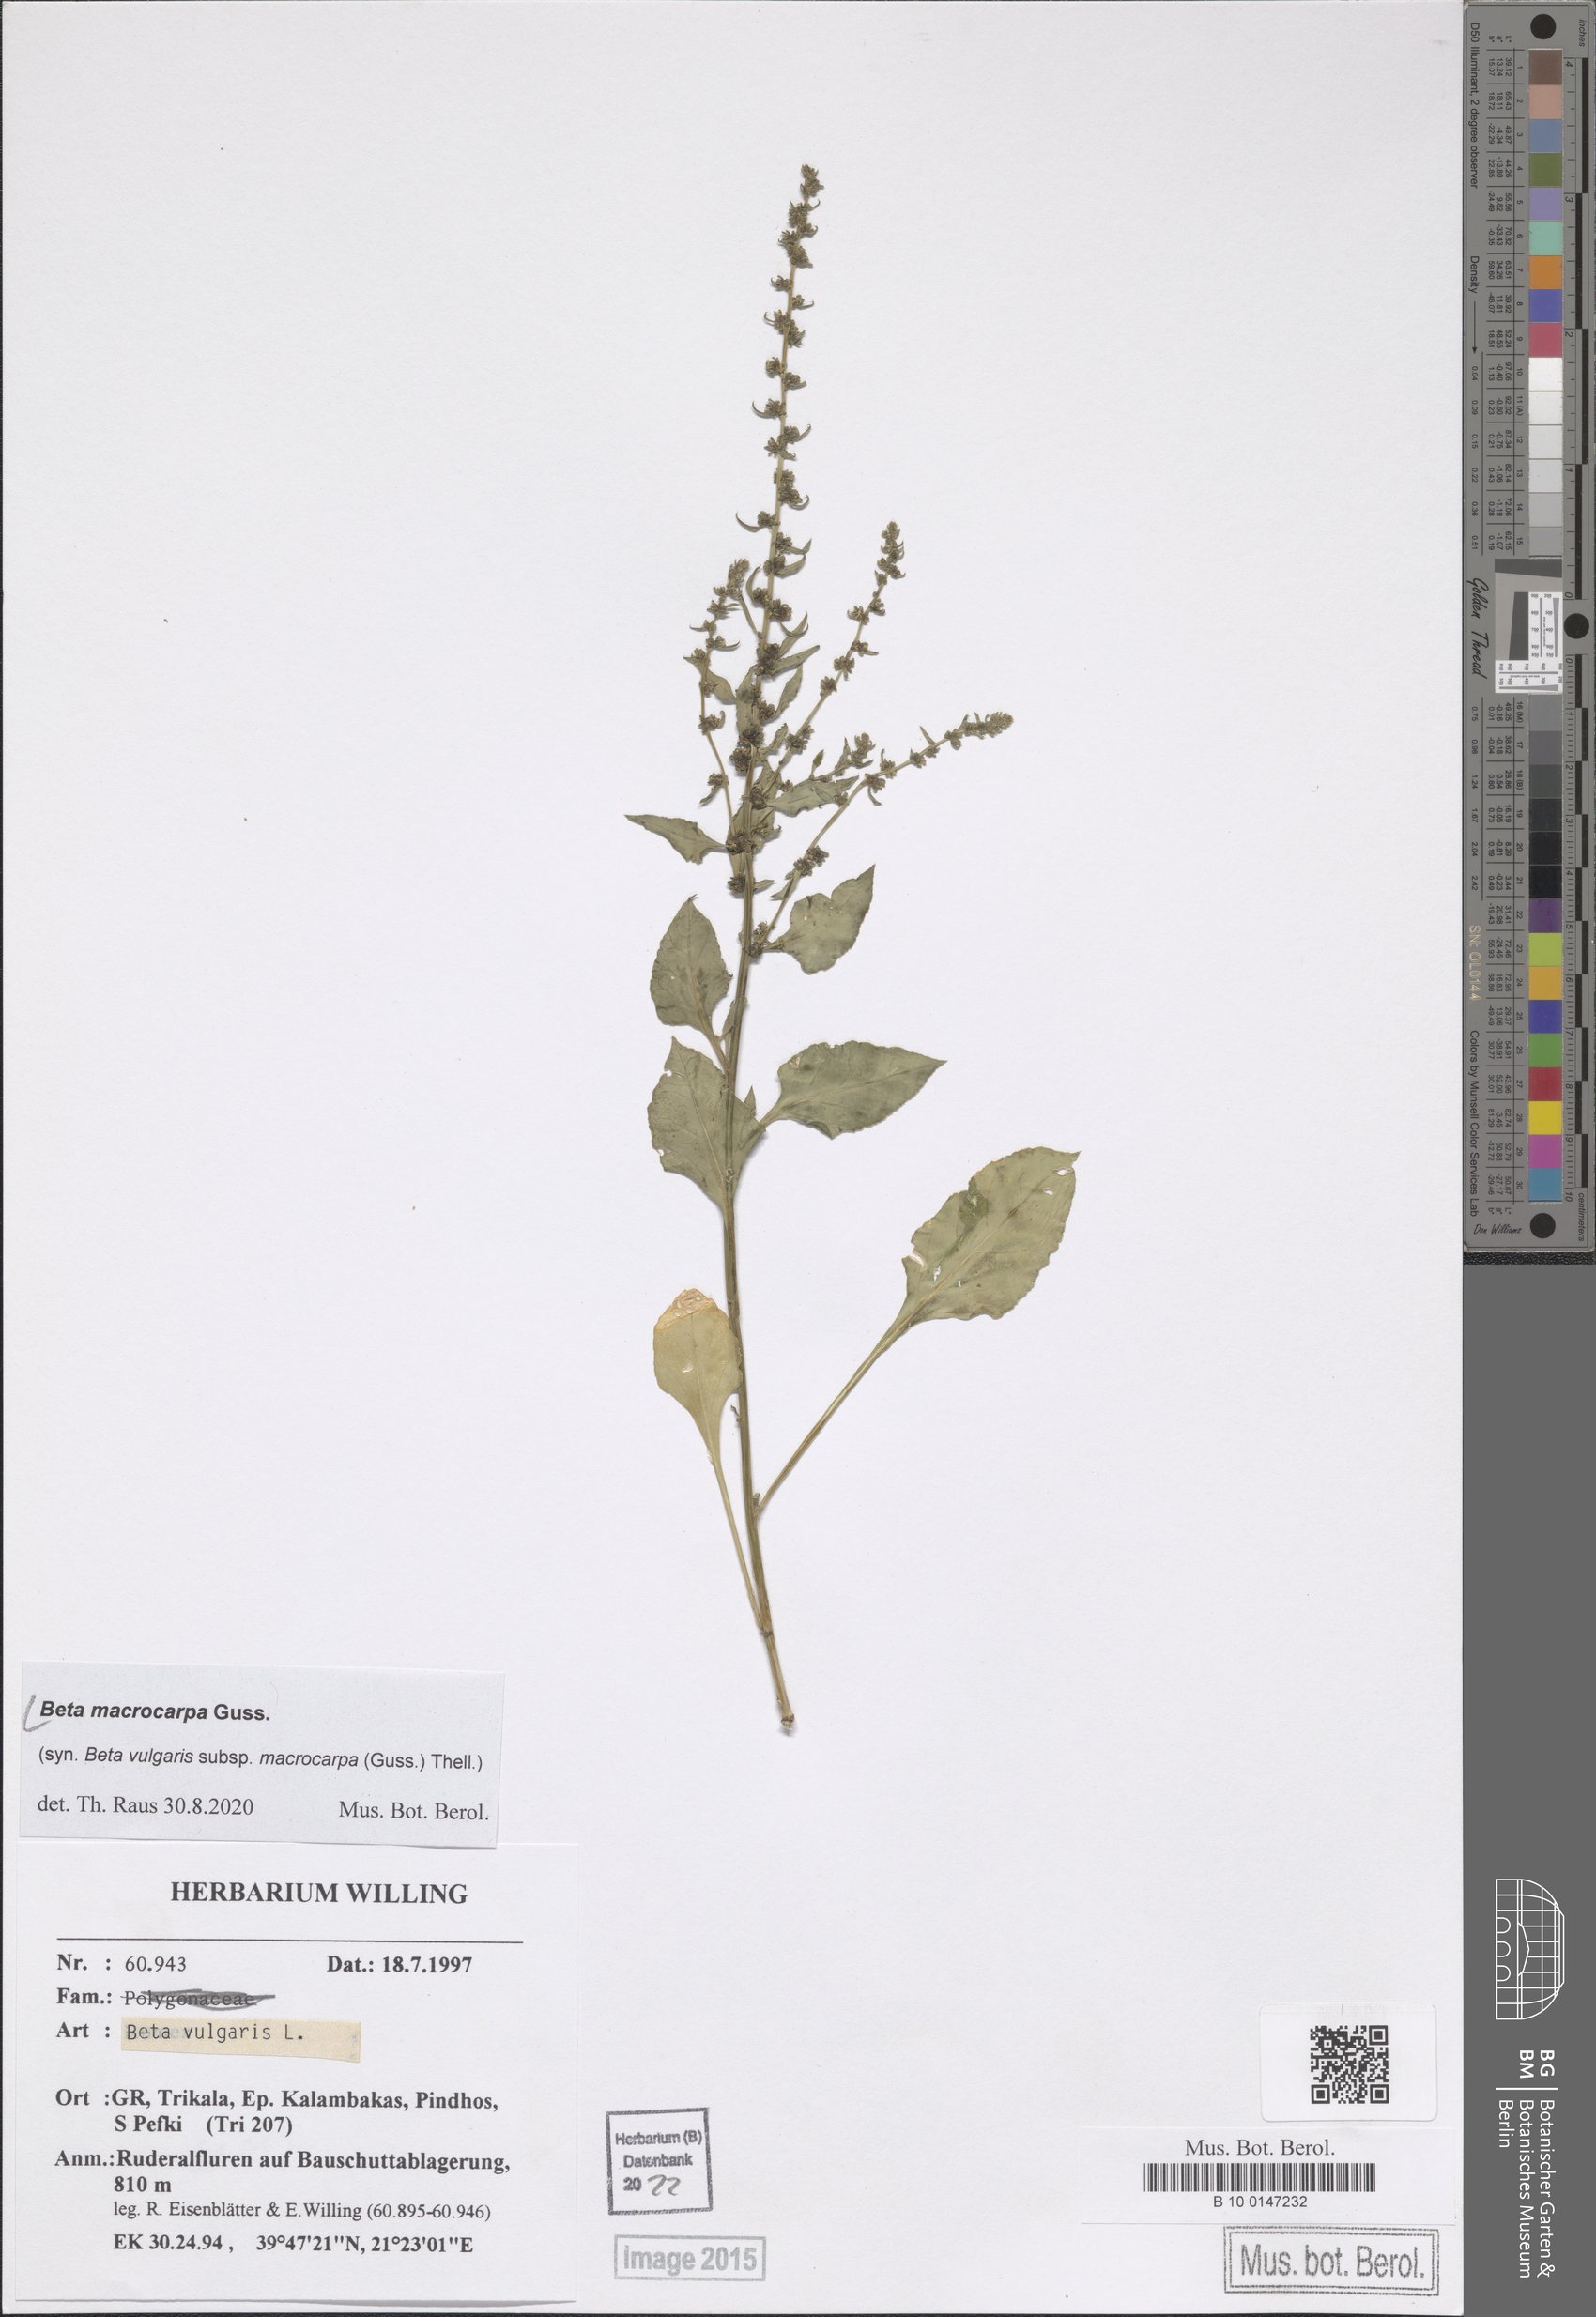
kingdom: Plantae
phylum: Tracheophyta
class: Magnoliopsida
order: Caryophyllales
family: Amaranthaceae
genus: Beta
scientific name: Beta macrocarpa
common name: Beet
